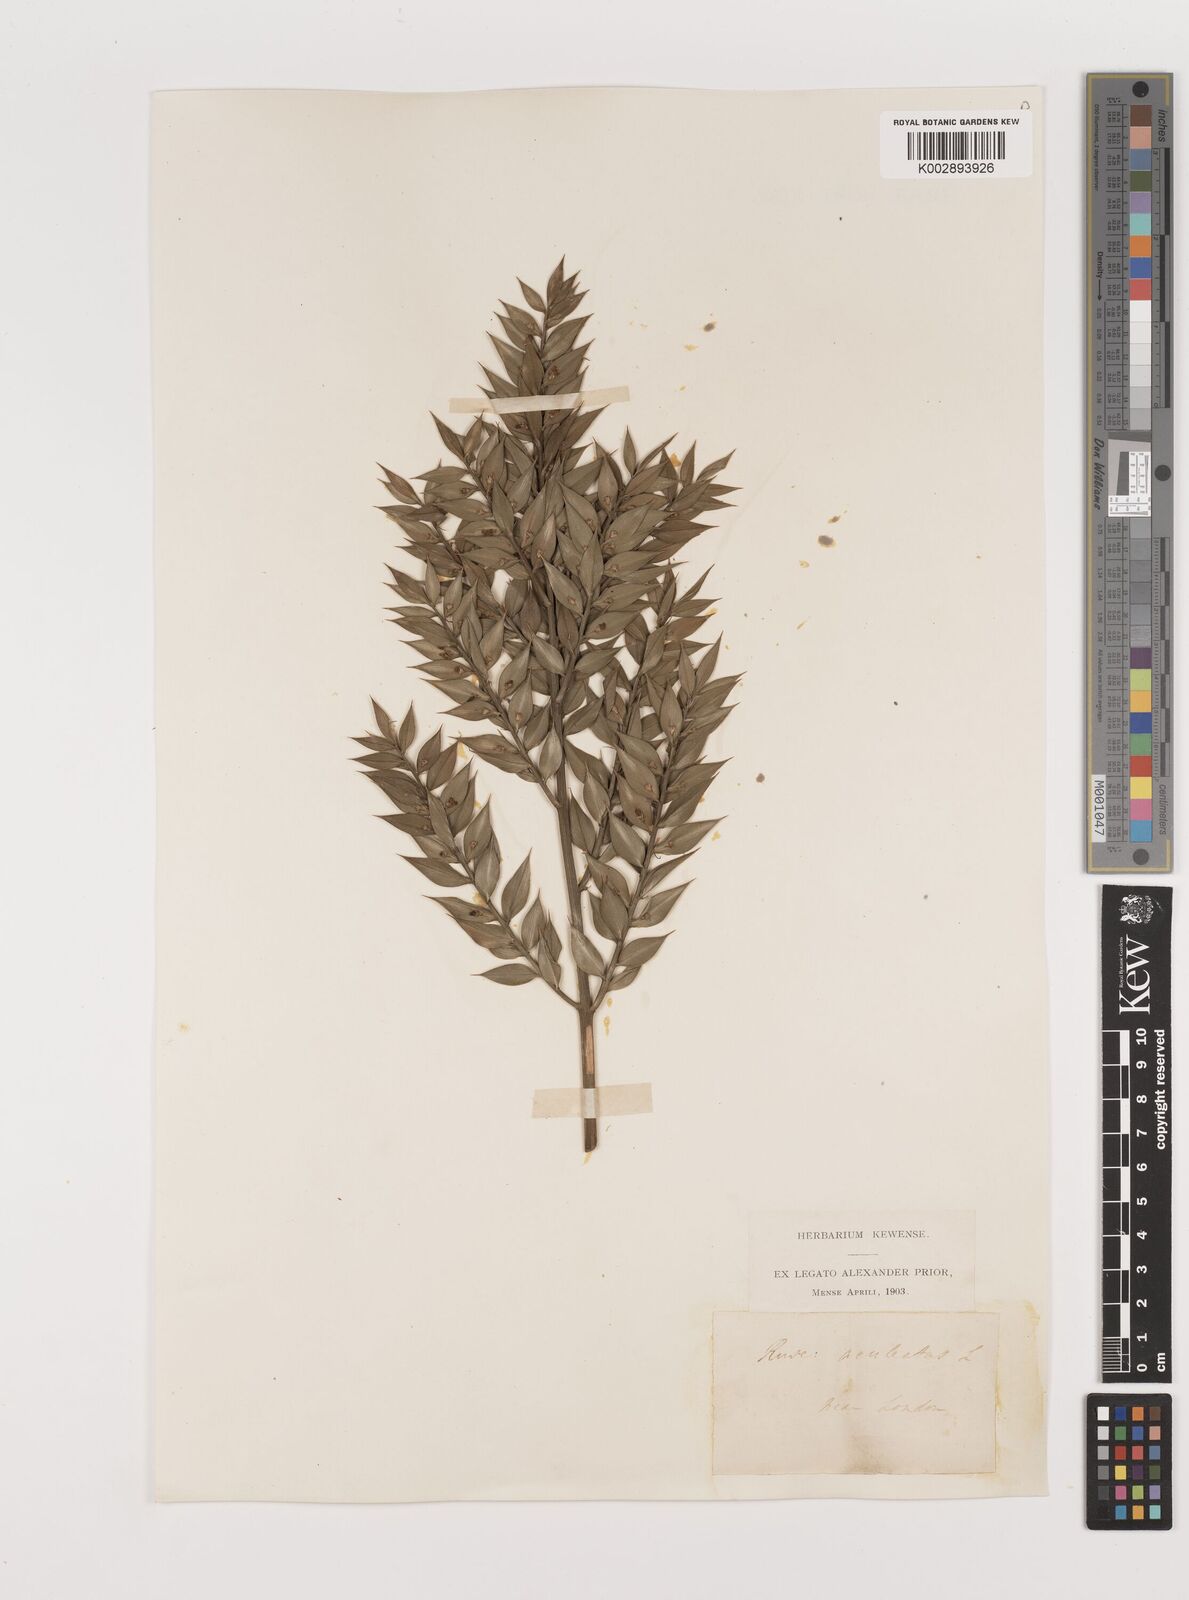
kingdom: Plantae
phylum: Tracheophyta
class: Liliopsida
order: Asparagales
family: Asparagaceae
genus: Ruscus
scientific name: Ruscus aculeatus
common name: Butcher's-broom
